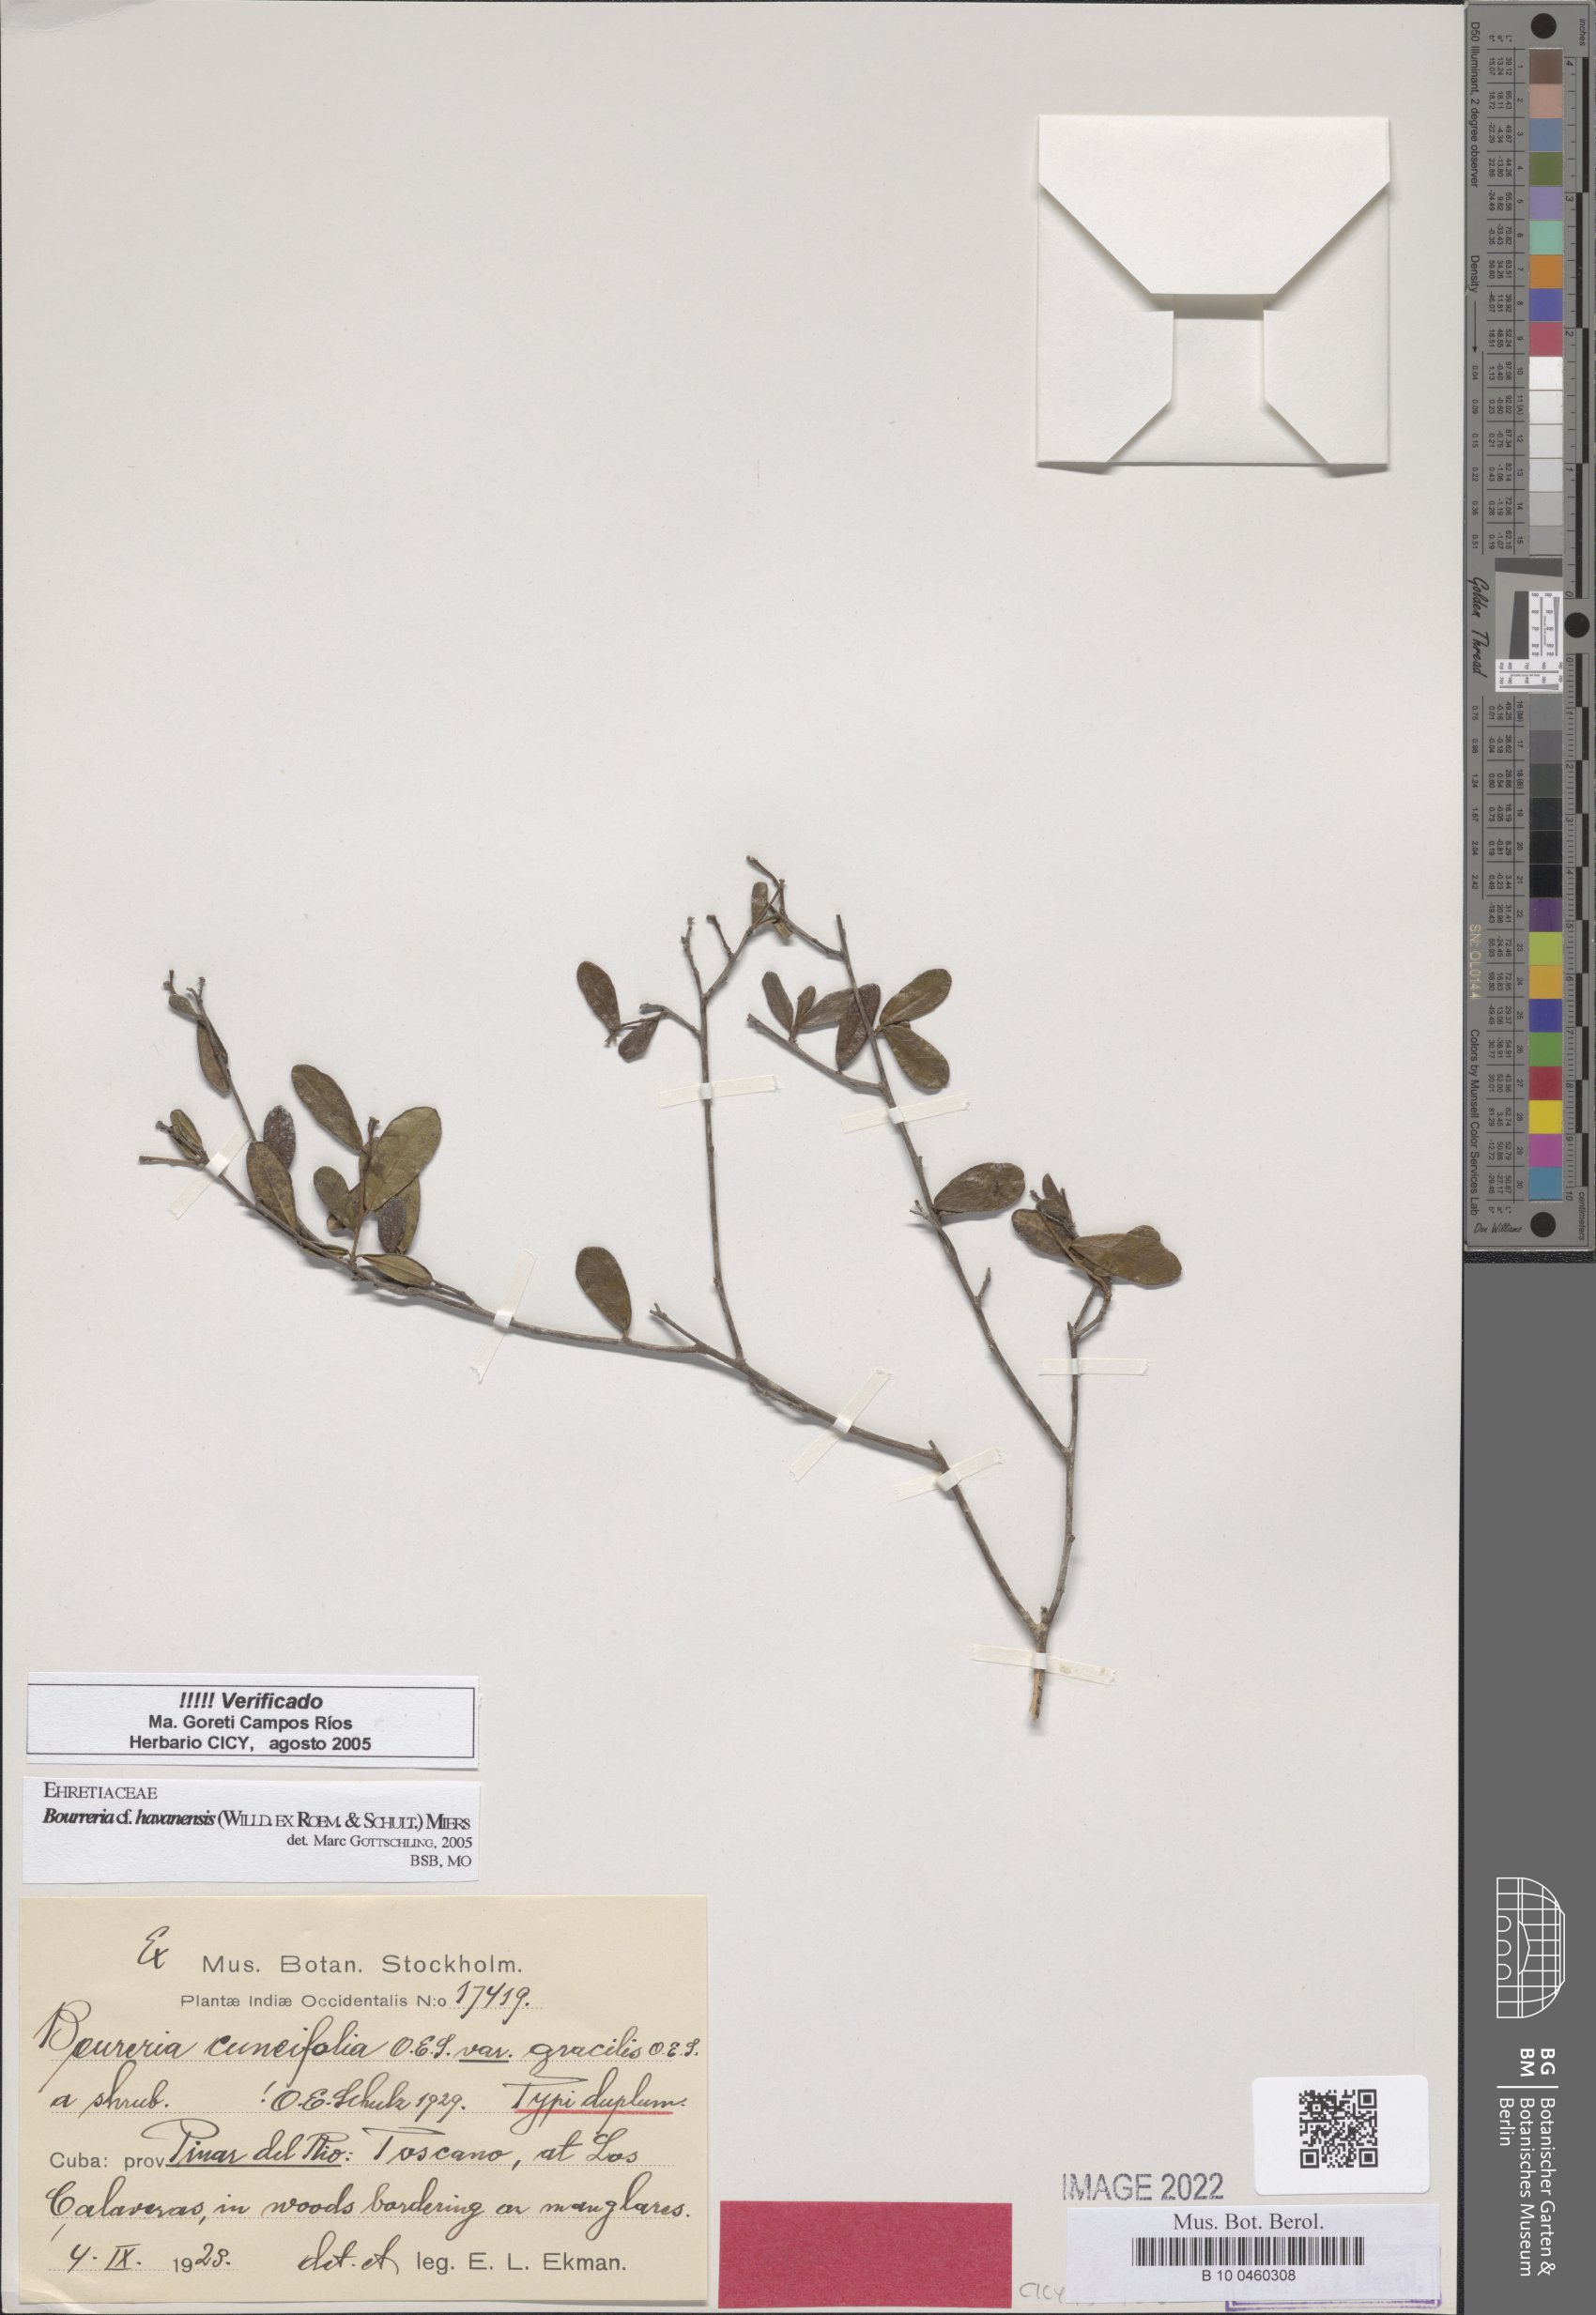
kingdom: Plantae
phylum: Tracheophyta
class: Magnoliopsida
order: Boraginales
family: Ehretiaceae
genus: Bourreria
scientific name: Bourreria havanensis
